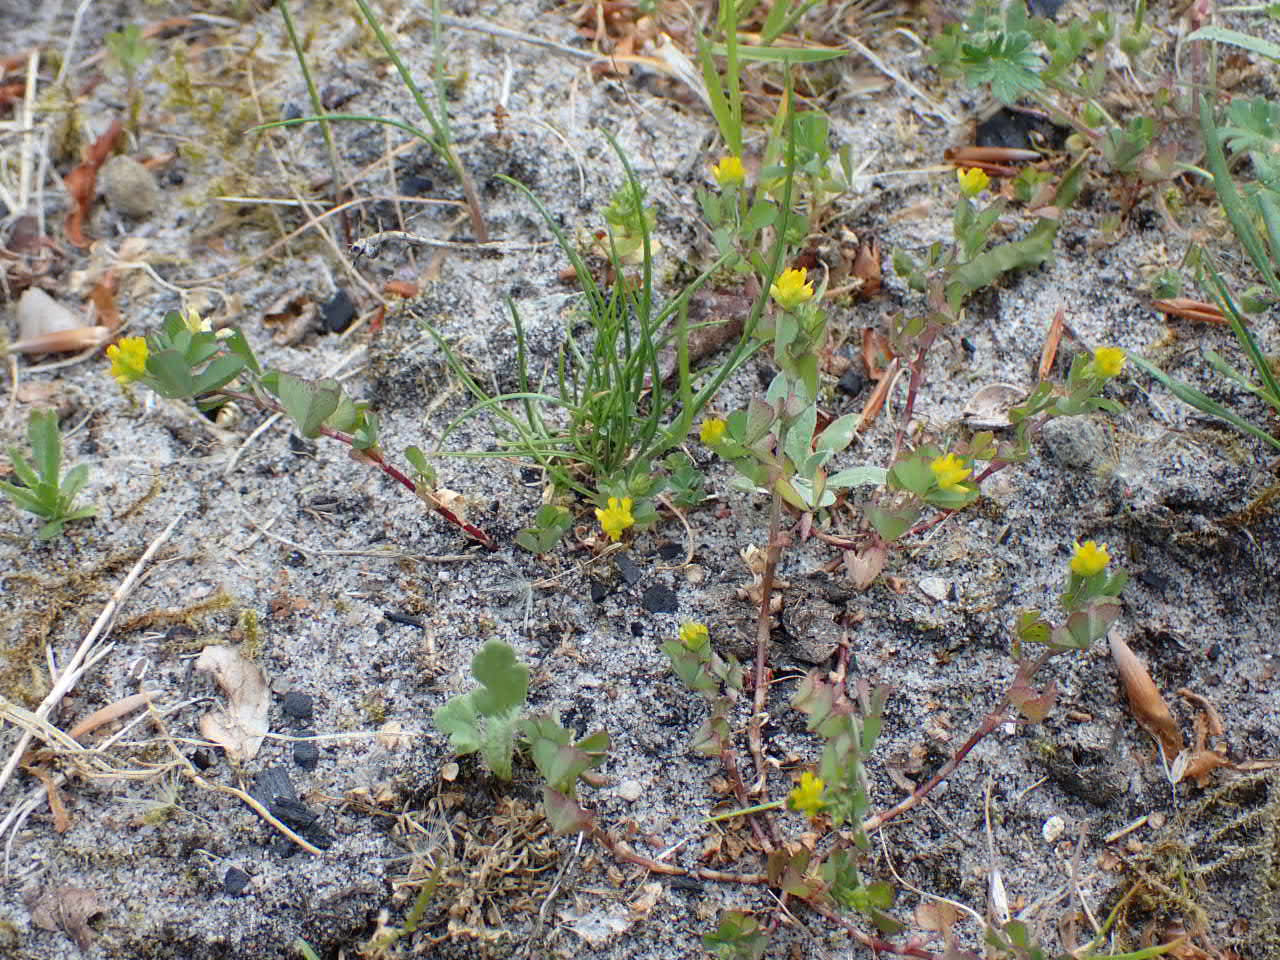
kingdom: Plantae
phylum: Tracheophyta
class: Magnoliopsida
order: Fabales
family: Fabaceae
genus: Trifolium
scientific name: Trifolium dubium
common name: Fin kløver
